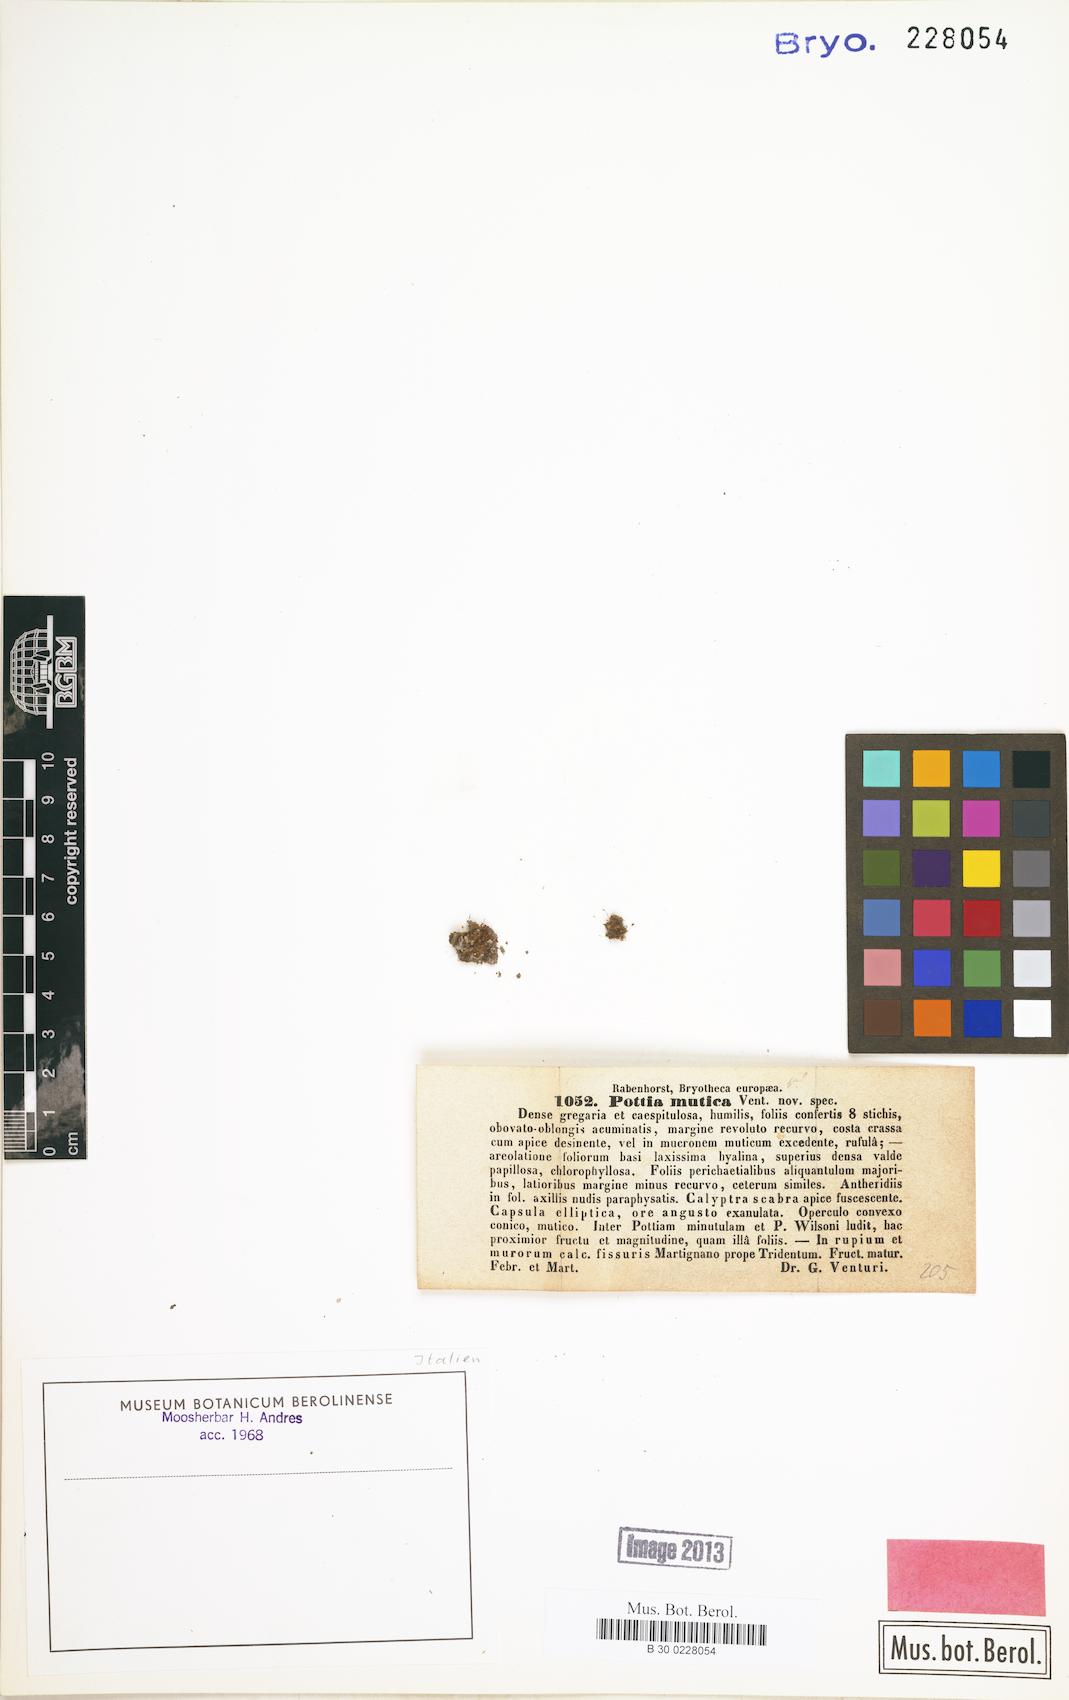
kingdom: Plantae
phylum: Bryophyta
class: Bryopsida
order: Pottiales
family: Pottiaceae
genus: Microbryum
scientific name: Microbryum muticum
